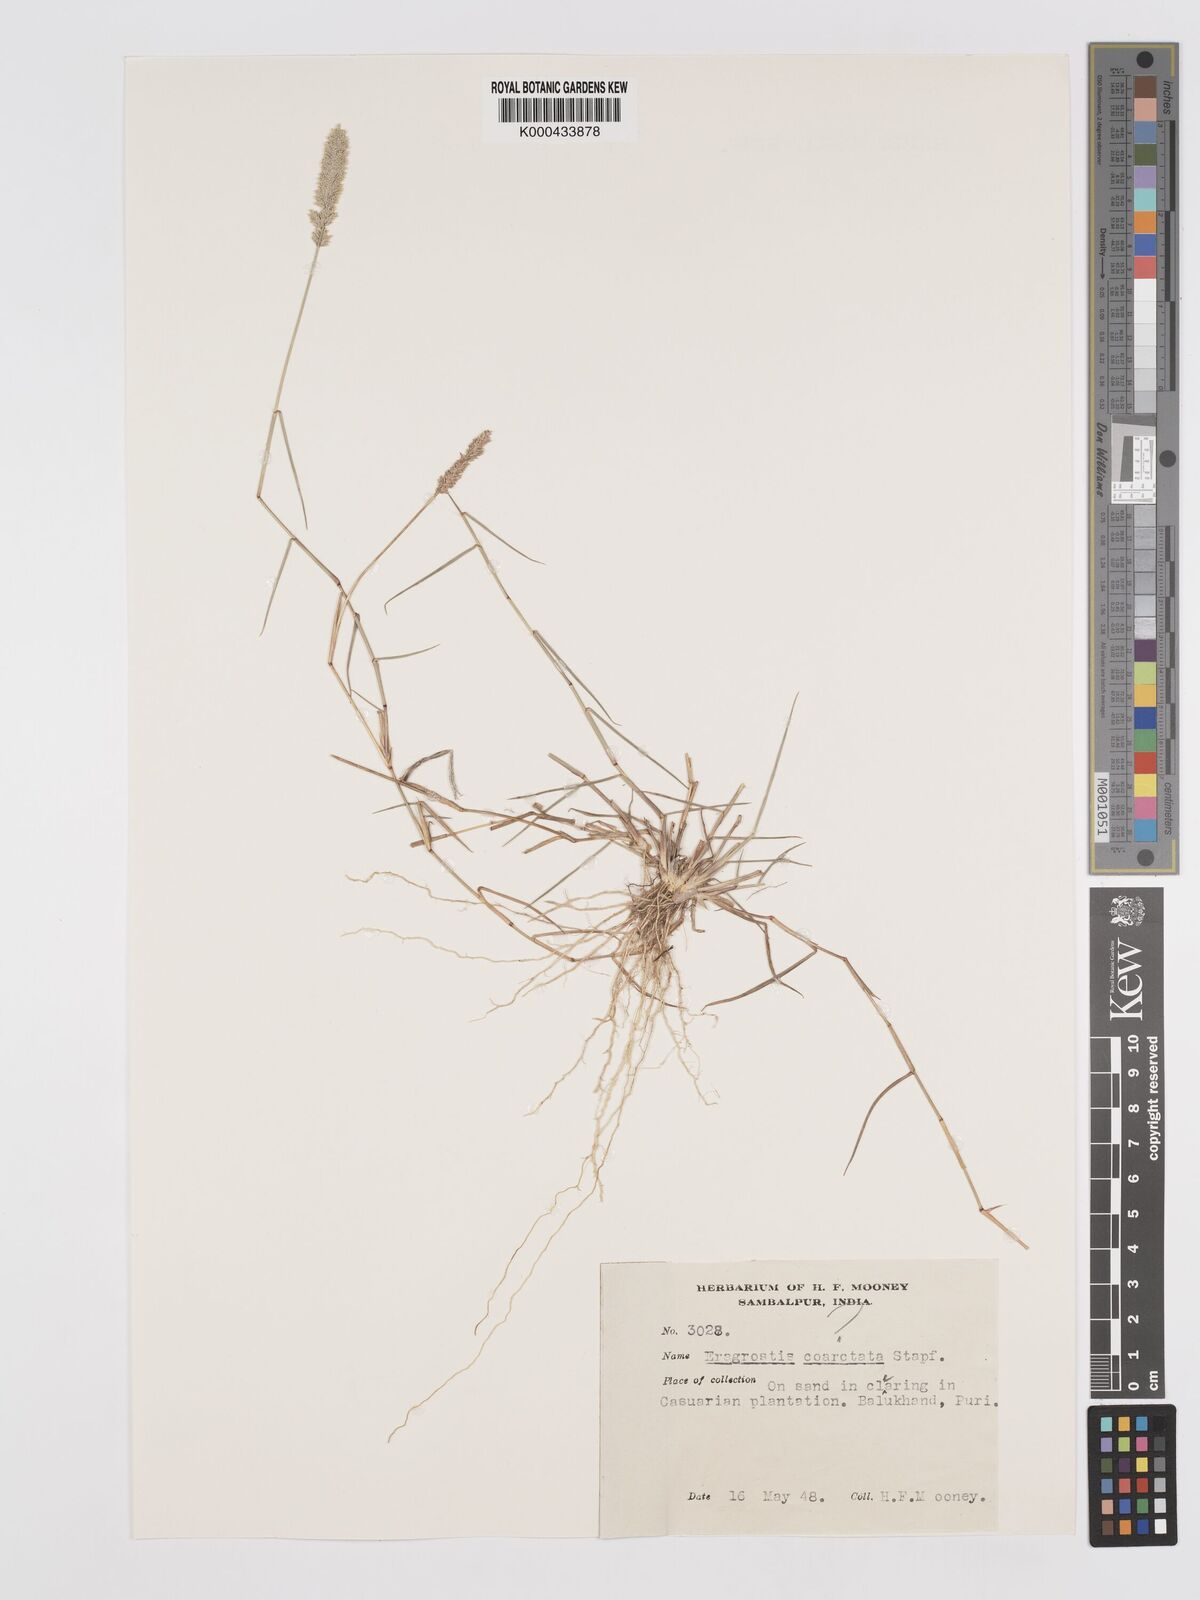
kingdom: Plantae
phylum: Tracheophyta
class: Liliopsida
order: Poales
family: Poaceae
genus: Eragrostis
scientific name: Eragrostis coarctata
